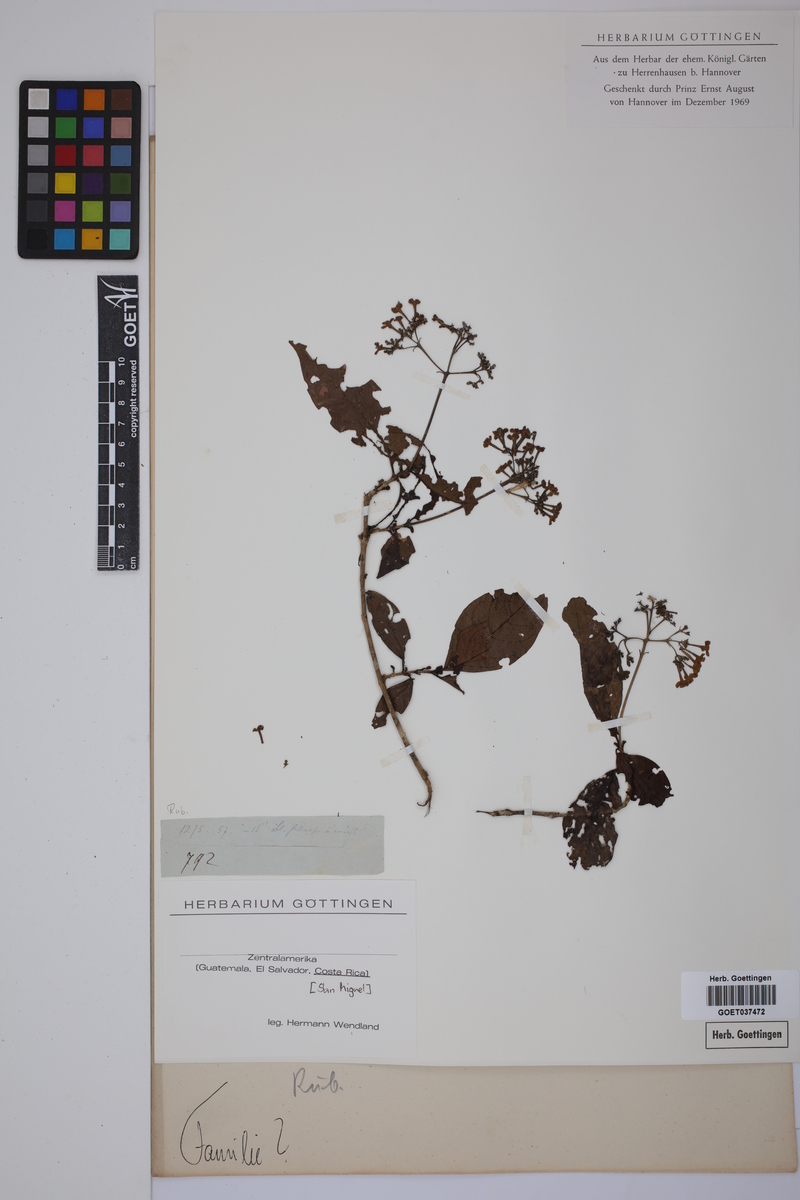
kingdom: Plantae
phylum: Tracheophyta
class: Magnoliopsida
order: Gentianales
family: Rubiaceae
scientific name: Rubiaceae
